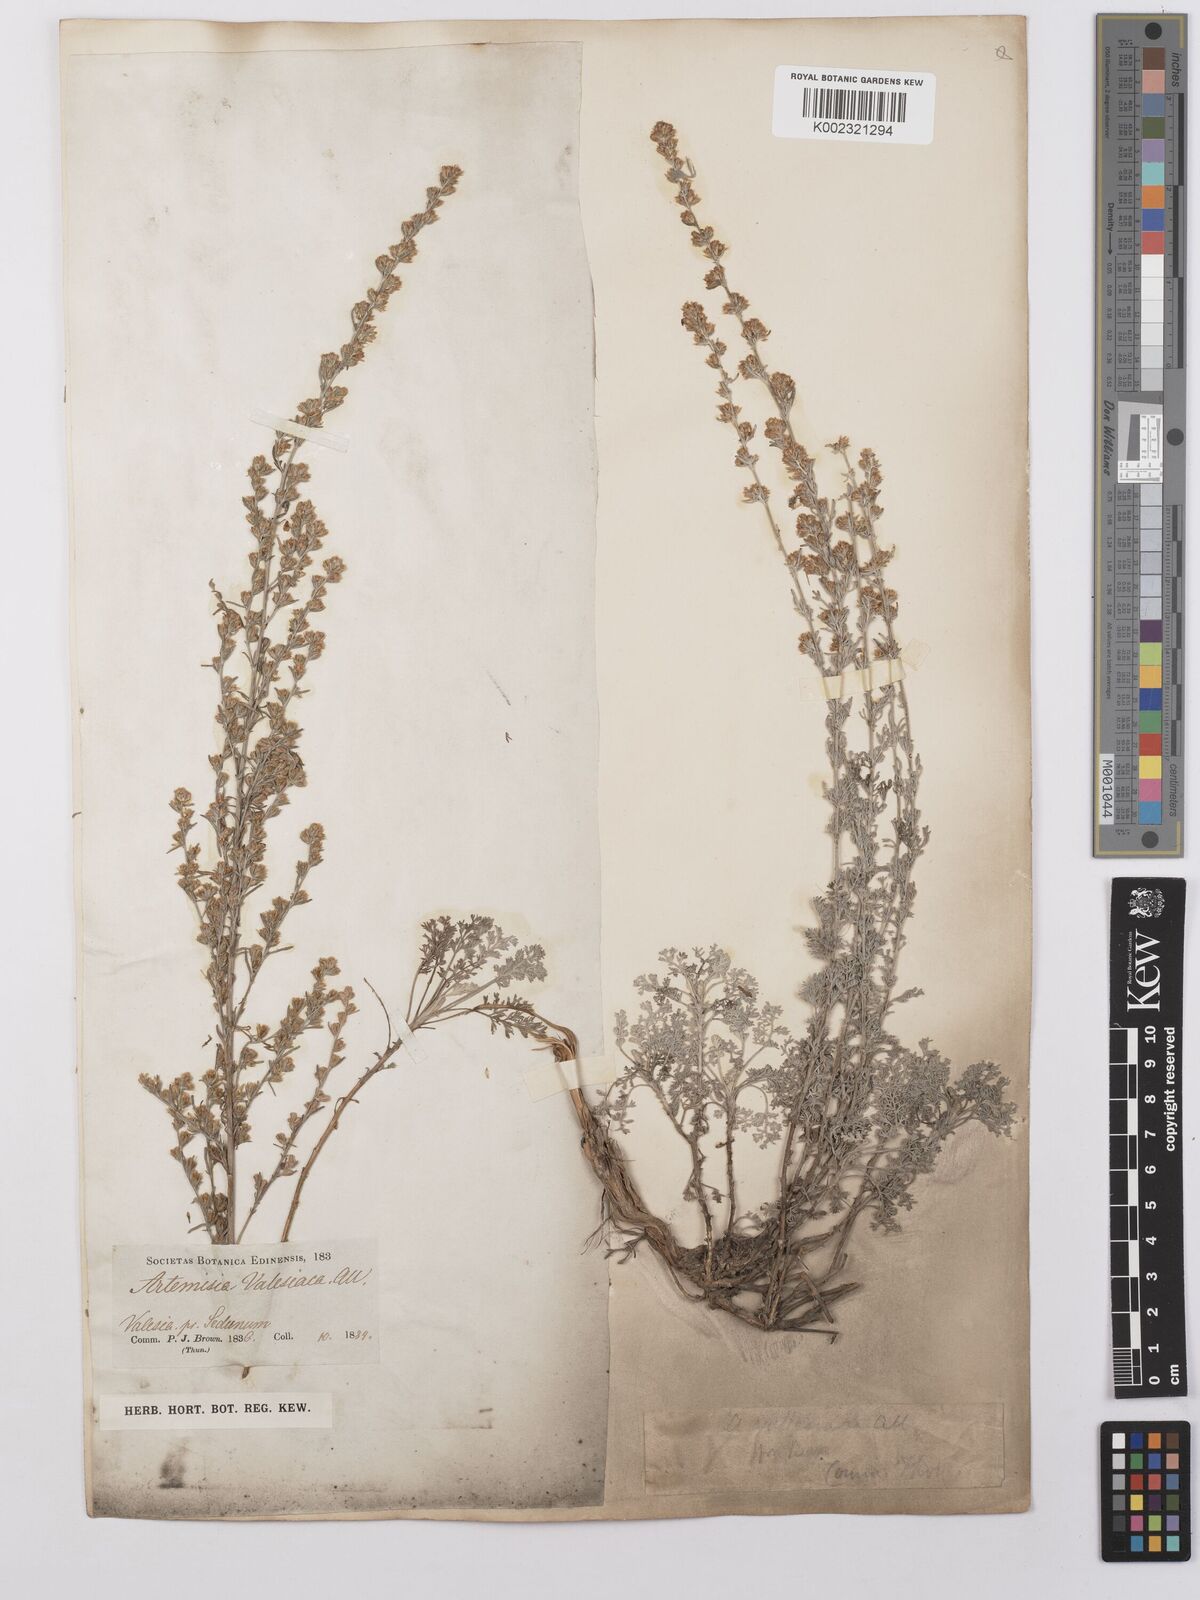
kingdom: Plantae
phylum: Tracheophyta
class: Magnoliopsida
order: Asterales
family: Asteraceae
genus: Artemisia
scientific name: Artemisia vallesiaca
